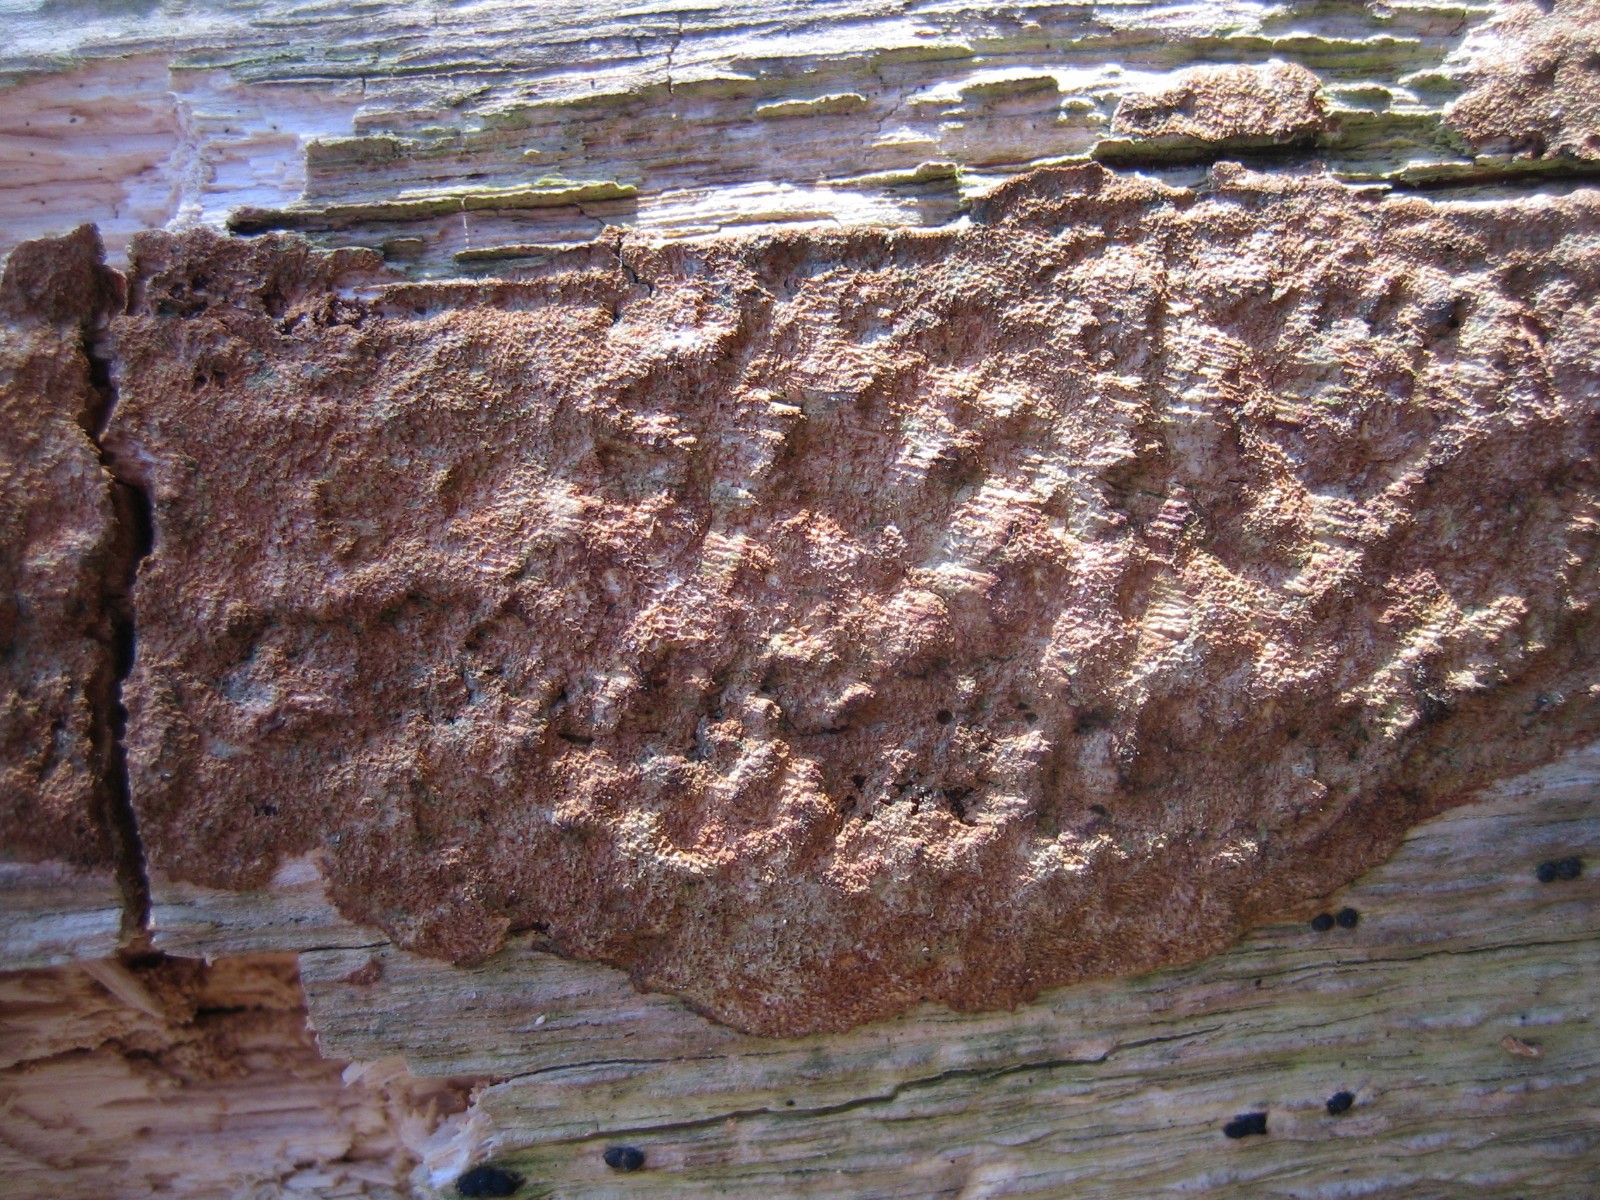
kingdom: Fungi
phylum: Basidiomycota
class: Agaricomycetes
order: Hymenochaetales
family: Hymenochaetaceae
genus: Mensularia
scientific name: Mensularia nodulosa
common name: bøge-spejlporesvamp
